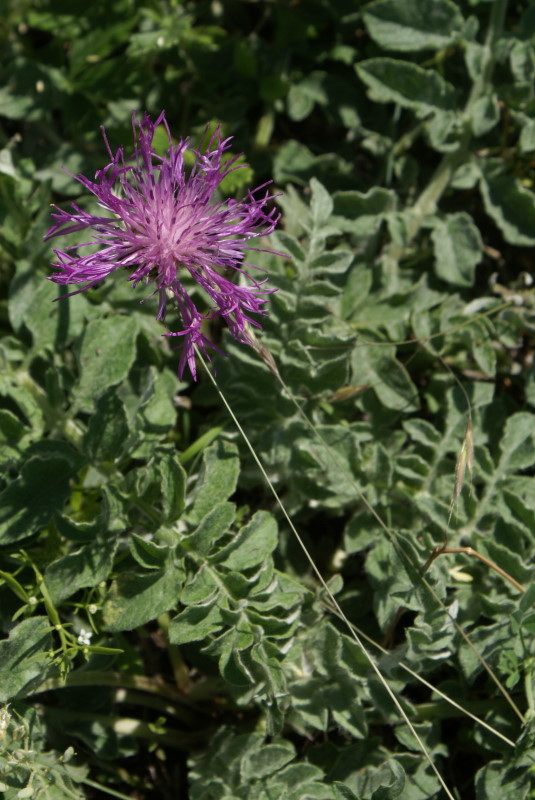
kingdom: Plantae
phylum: Tracheophyta
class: Magnoliopsida
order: Asterales
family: Asteraceae
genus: Psephellus
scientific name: Psephellus declinatus
